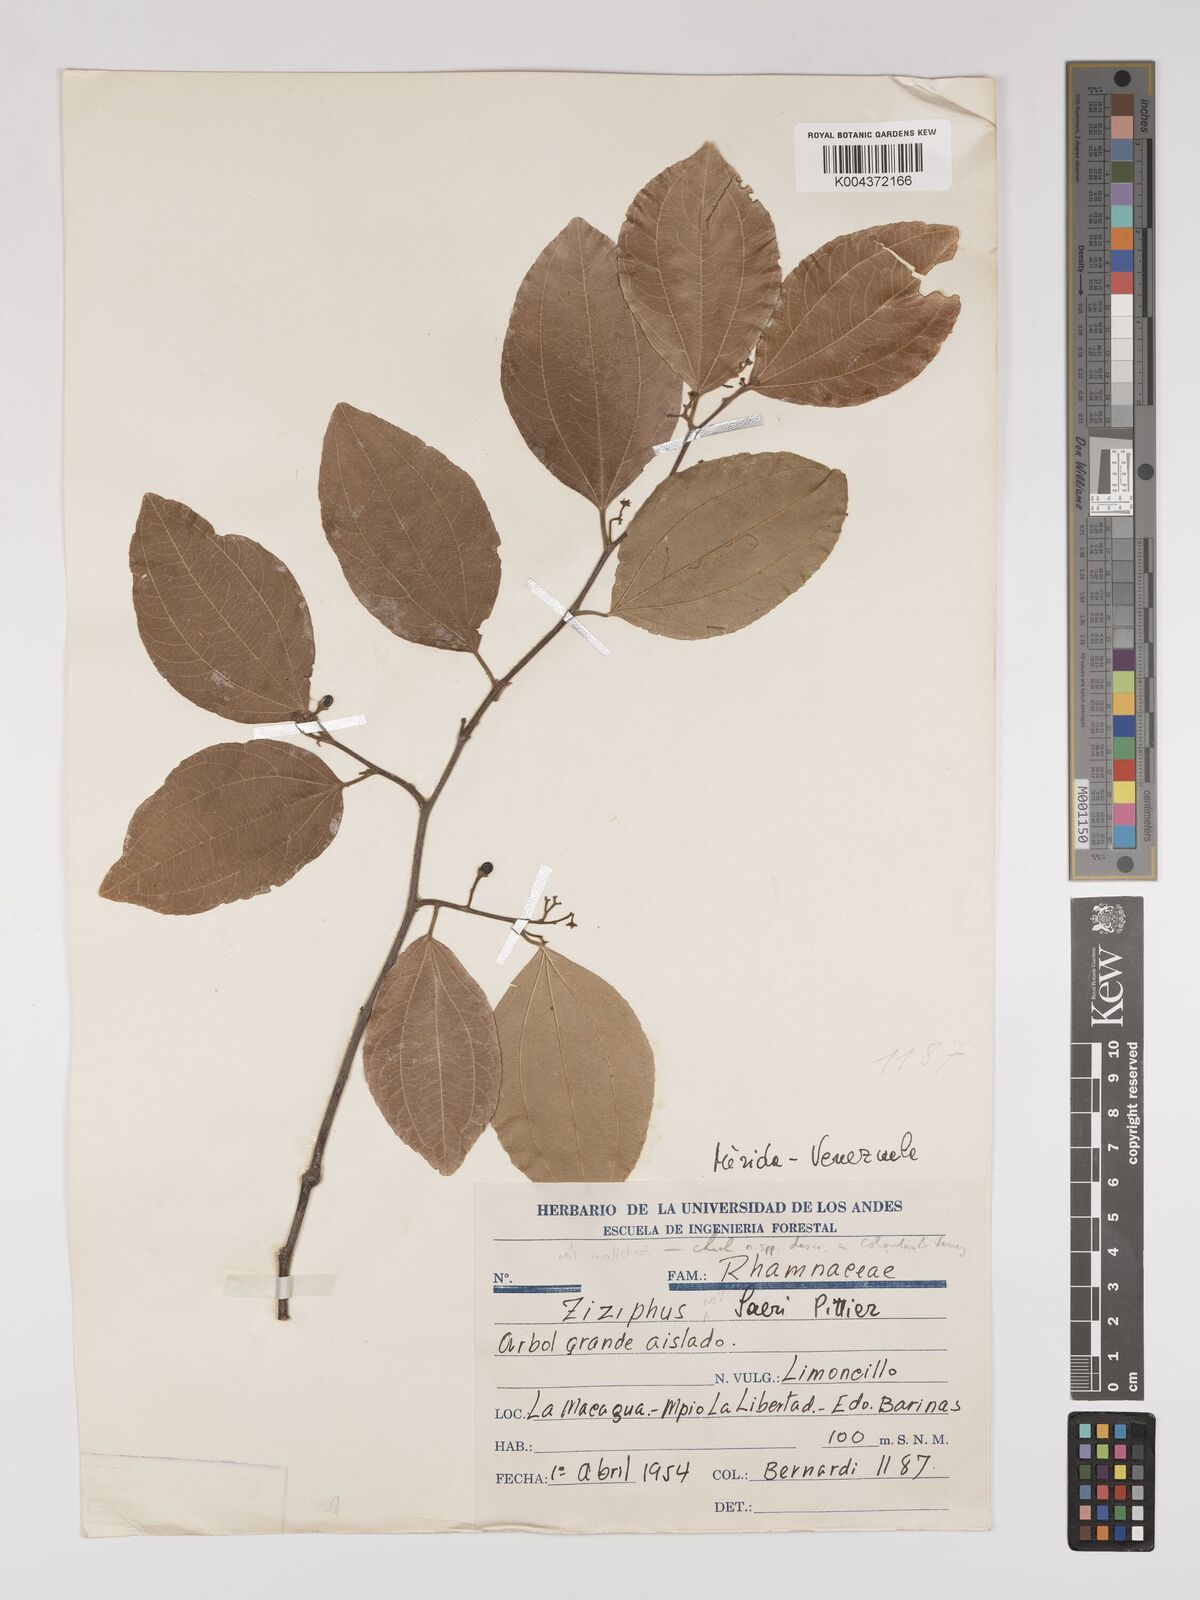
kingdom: Plantae
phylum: Tracheophyta
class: Magnoliopsida
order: Rosales
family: Rhamnaceae
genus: Sarcomphalus
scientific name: Sarcomphalus saeri
